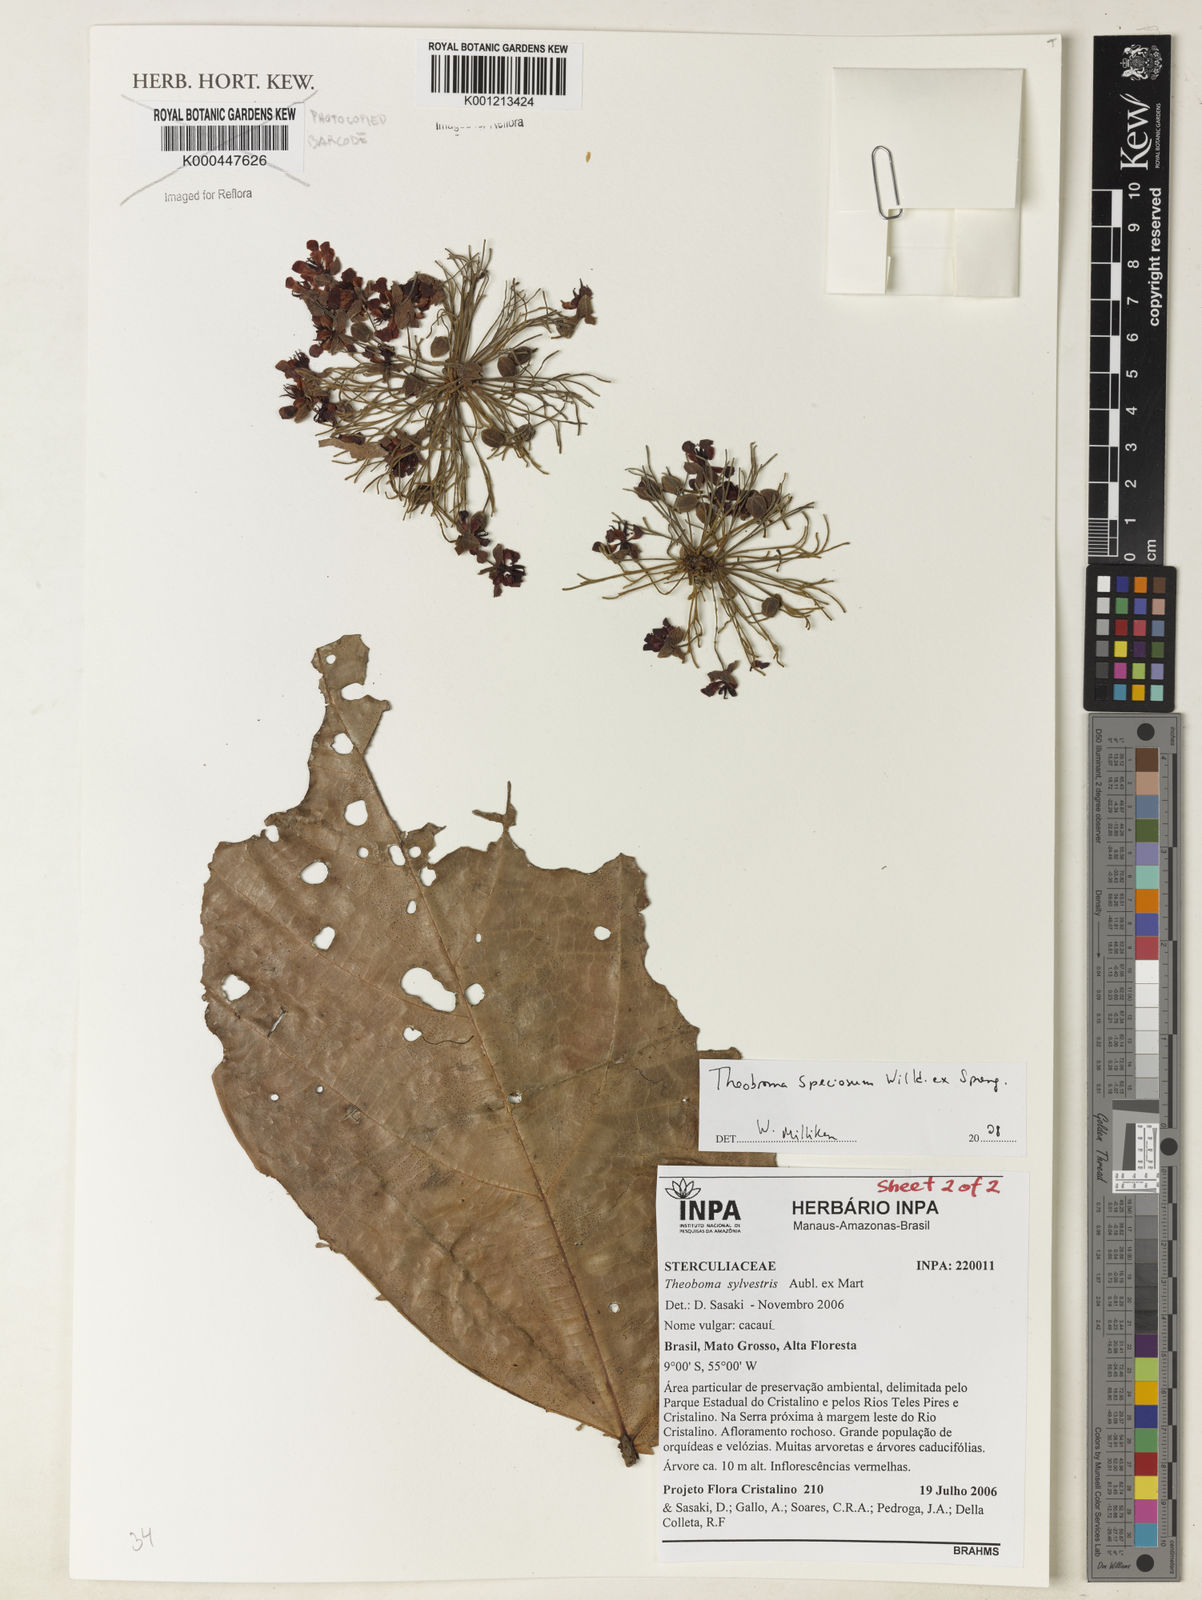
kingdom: Plantae
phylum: Tracheophyta
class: Magnoliopsida
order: Malvales
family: Malvaceae
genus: Theobroma
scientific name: Theobroma speciosum
